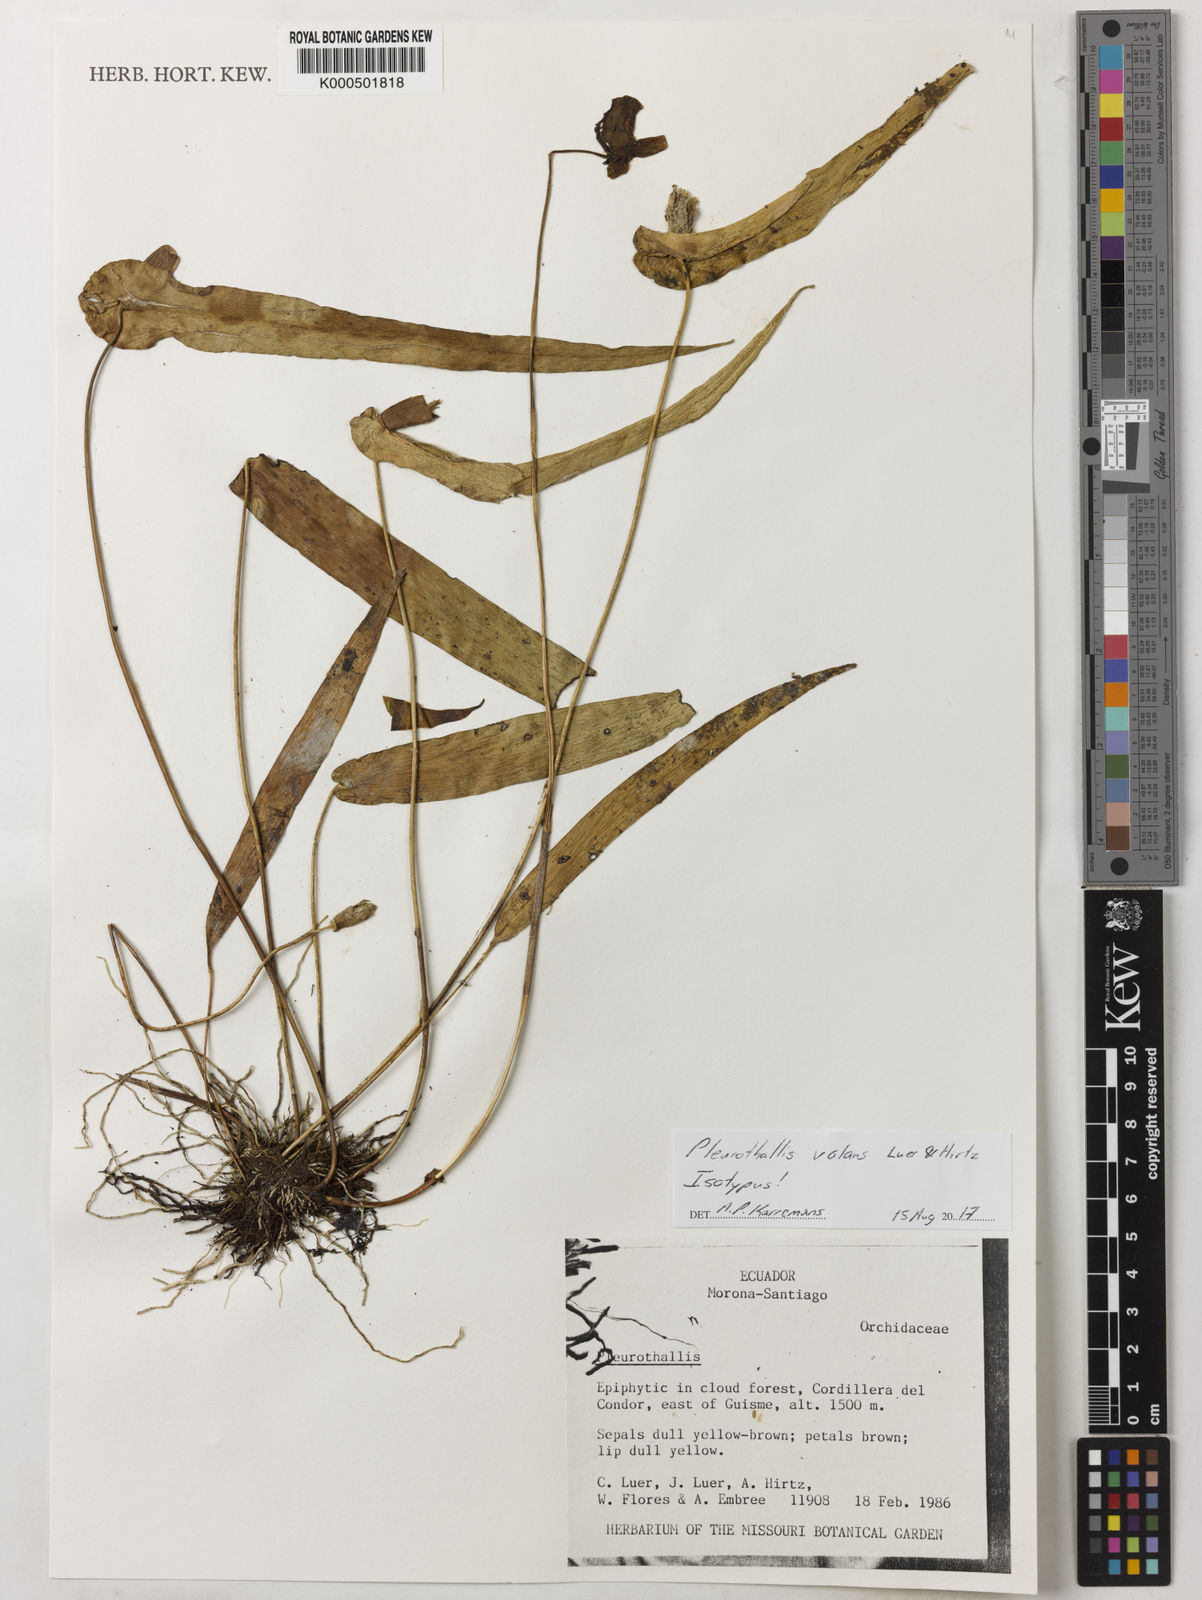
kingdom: Plantae
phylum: Tracheophyta
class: Liliopsida
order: Asparagales
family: Orchidaceae
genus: Pleurothallis
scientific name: Pleurothallis volans
